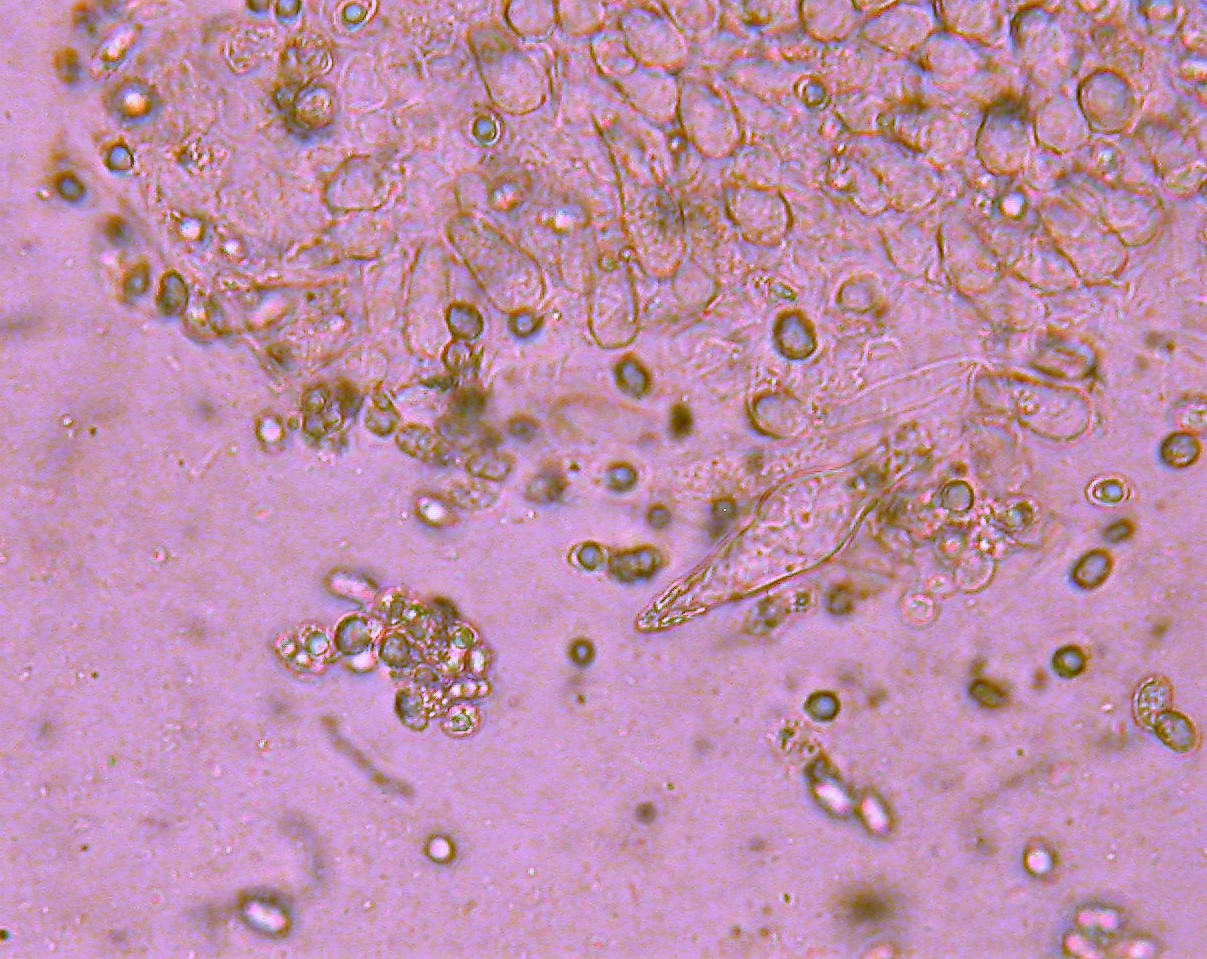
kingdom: Fungi
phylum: Basidiomycota
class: Agaricomycetes
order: Agaricales
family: Tricholomataceae
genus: Melanoleuca
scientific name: Melanoleuca
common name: munkehat
